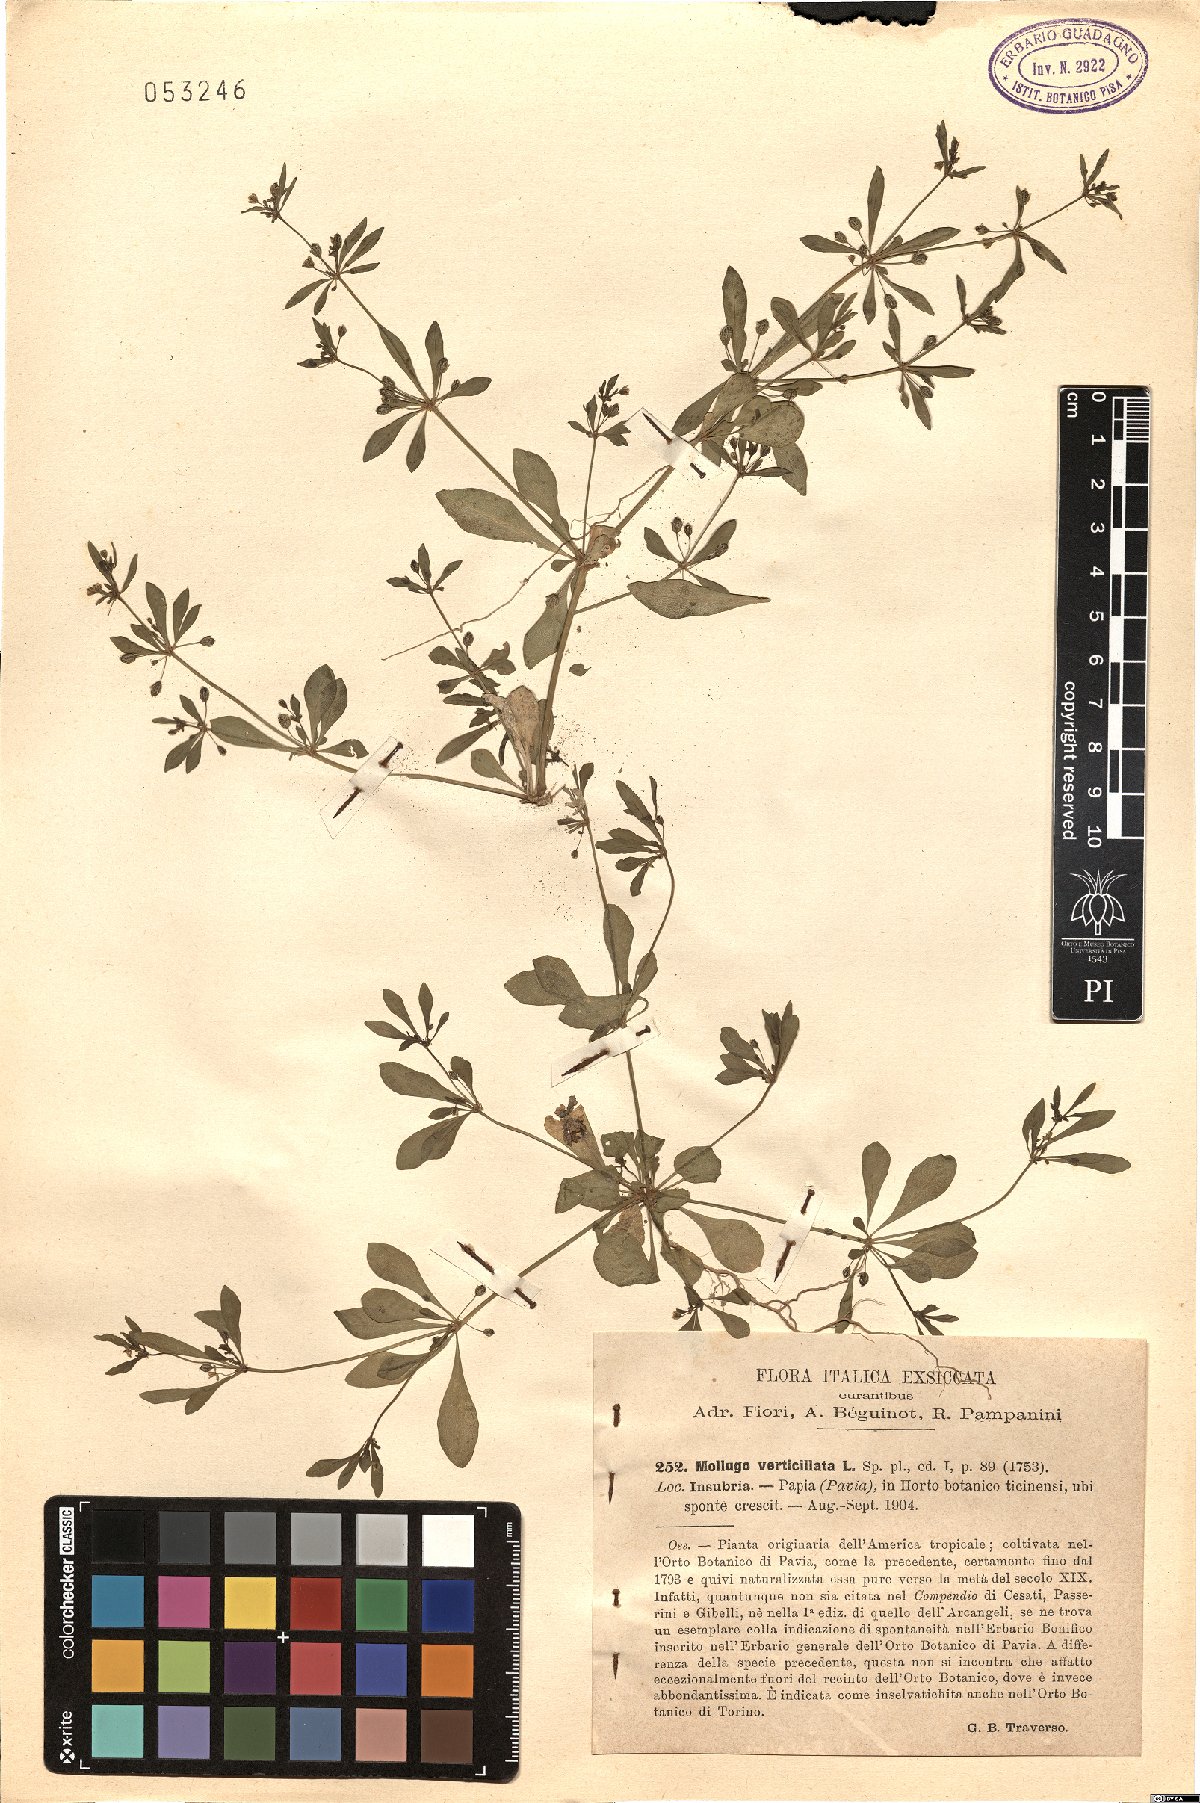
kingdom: Plantae
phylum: Tracheophyta
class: Magnoliopsida
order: Caryophyllales
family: Molluginaceae
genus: Mollugo
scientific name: Mollugo verticillata
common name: Green carpetweed
